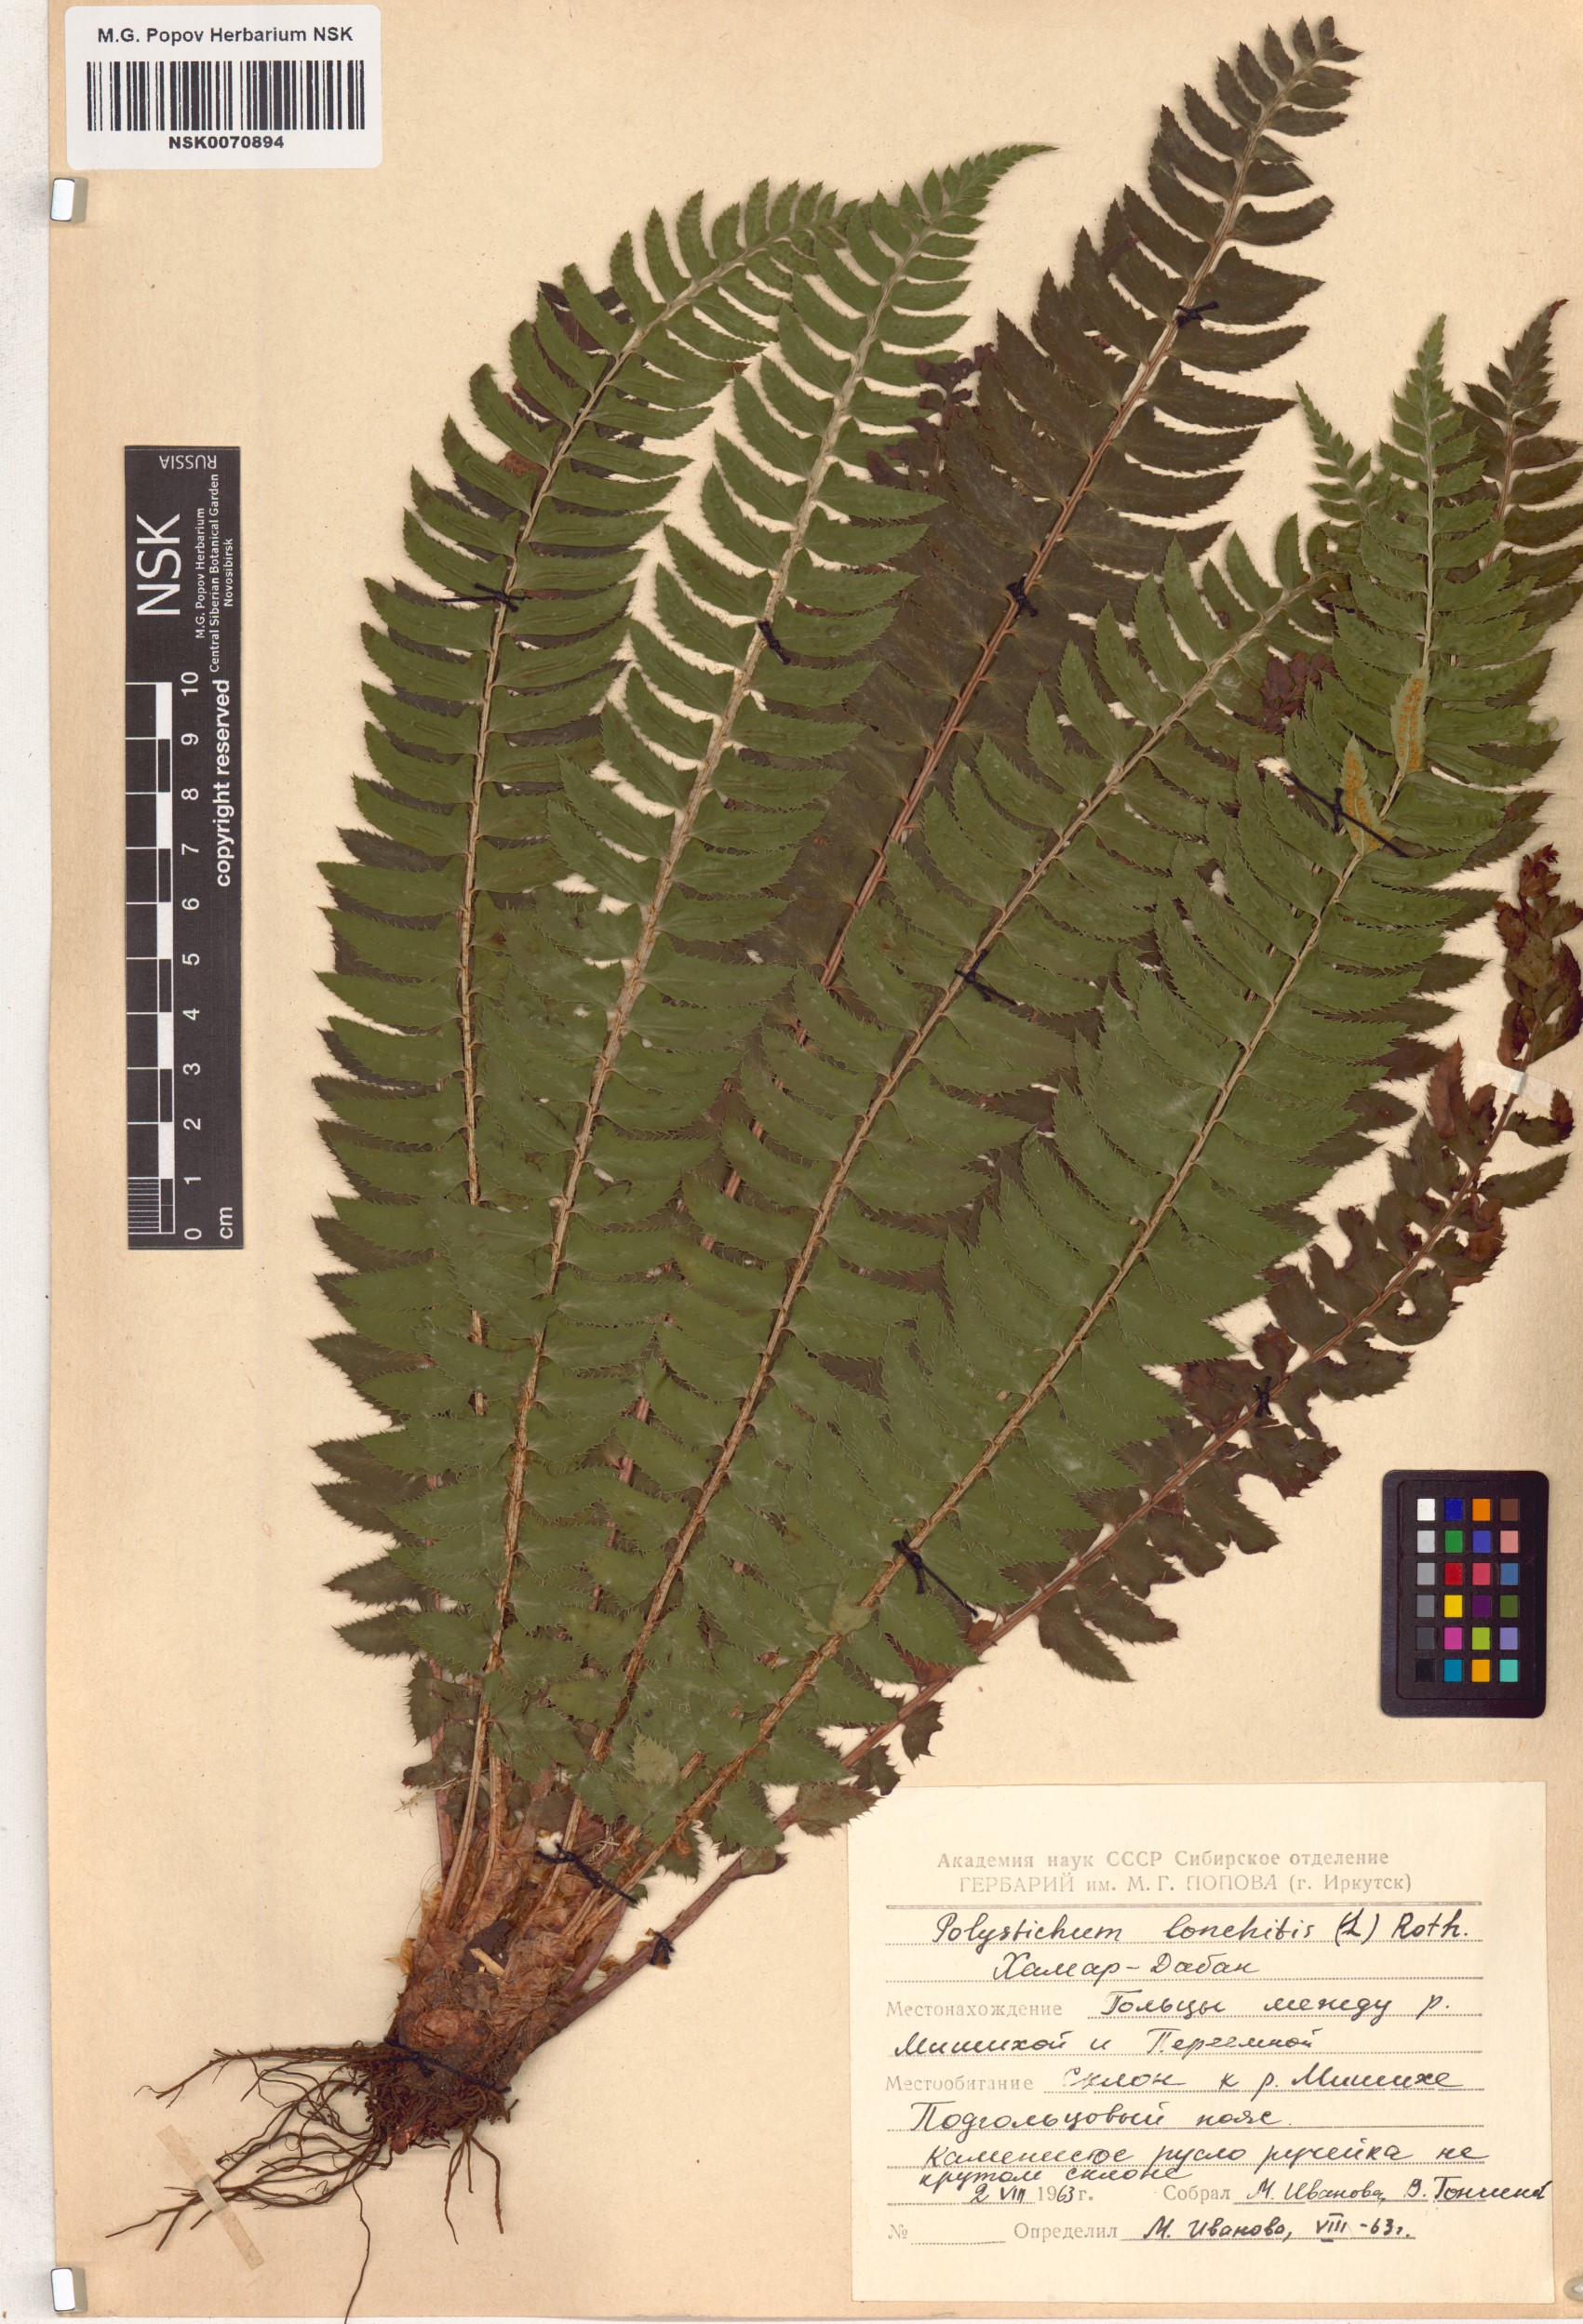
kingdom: Plantae
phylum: Tracheophyta
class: Polypodiopsida
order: Polypodiales
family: Dryopteridaceae
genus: Polystichum
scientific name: Polystichum lonchitis
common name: Holly fern
